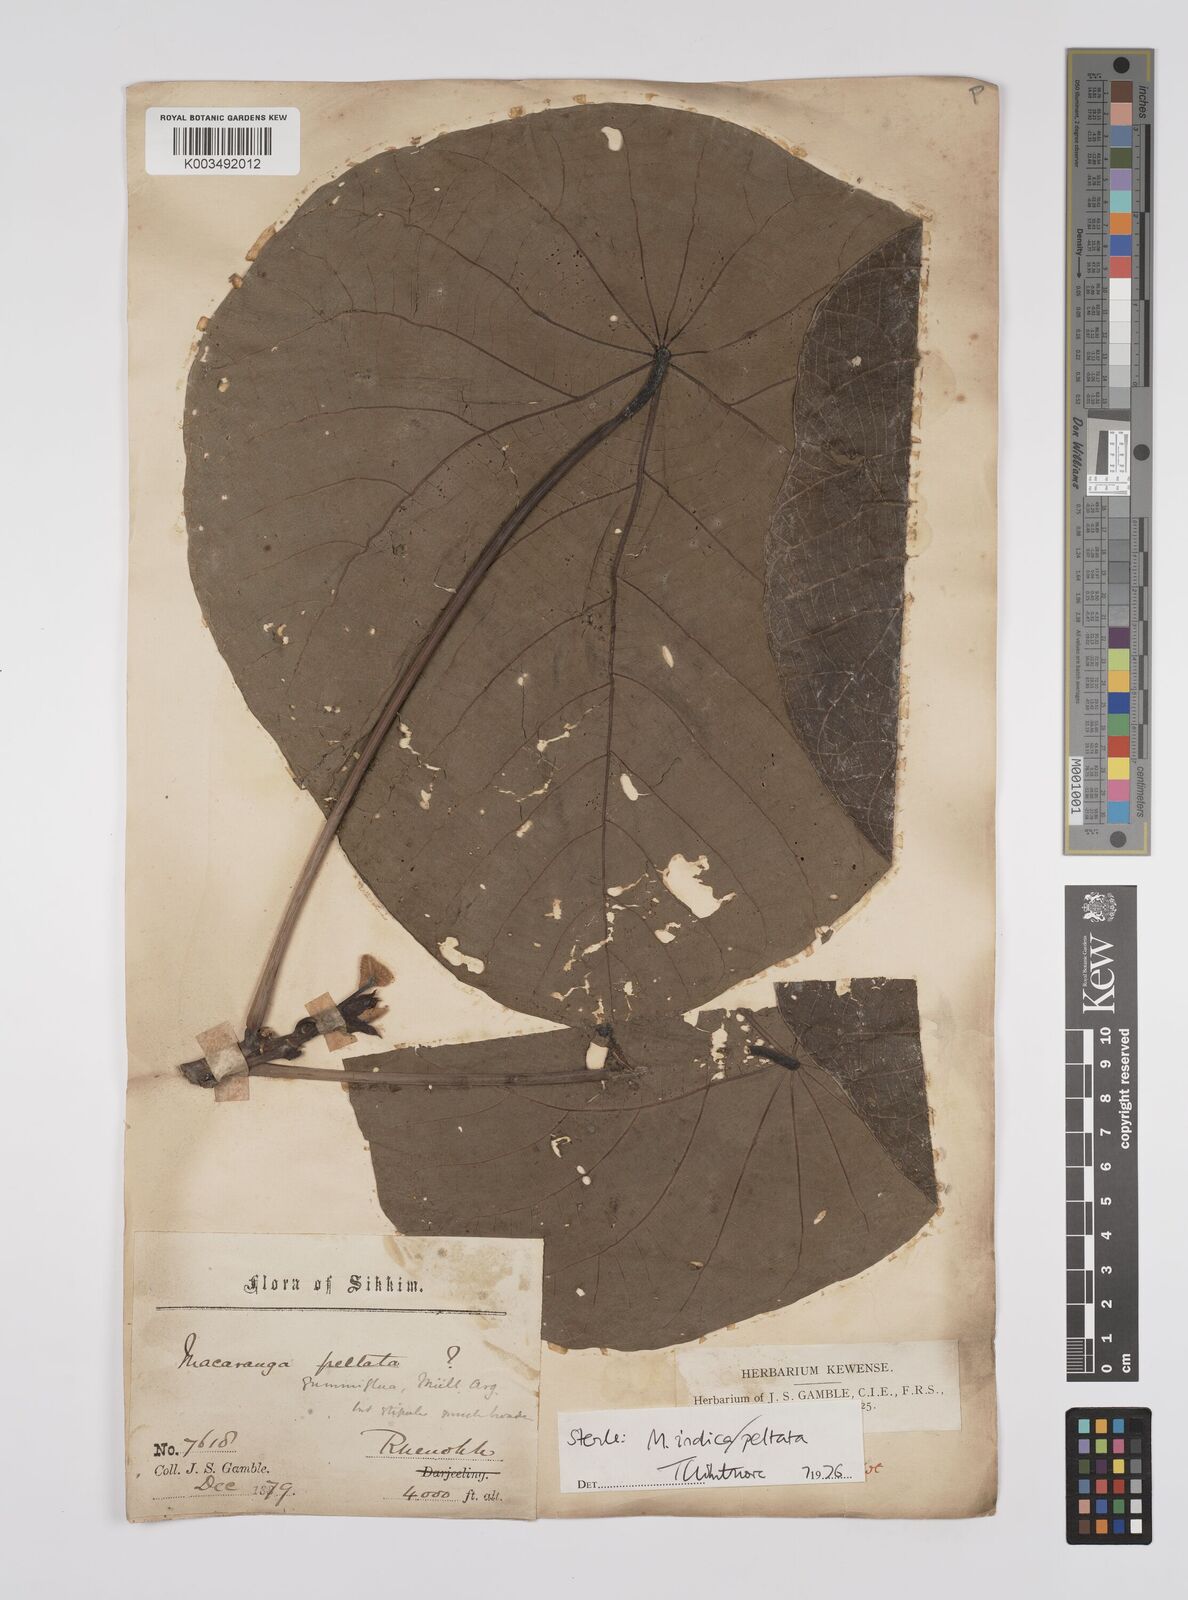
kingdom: Plantae
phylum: Tracheophyta
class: Magnoliopsida
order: Malpighiales
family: Euphorbiaceae
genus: Macaranga
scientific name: Macaranga indica
